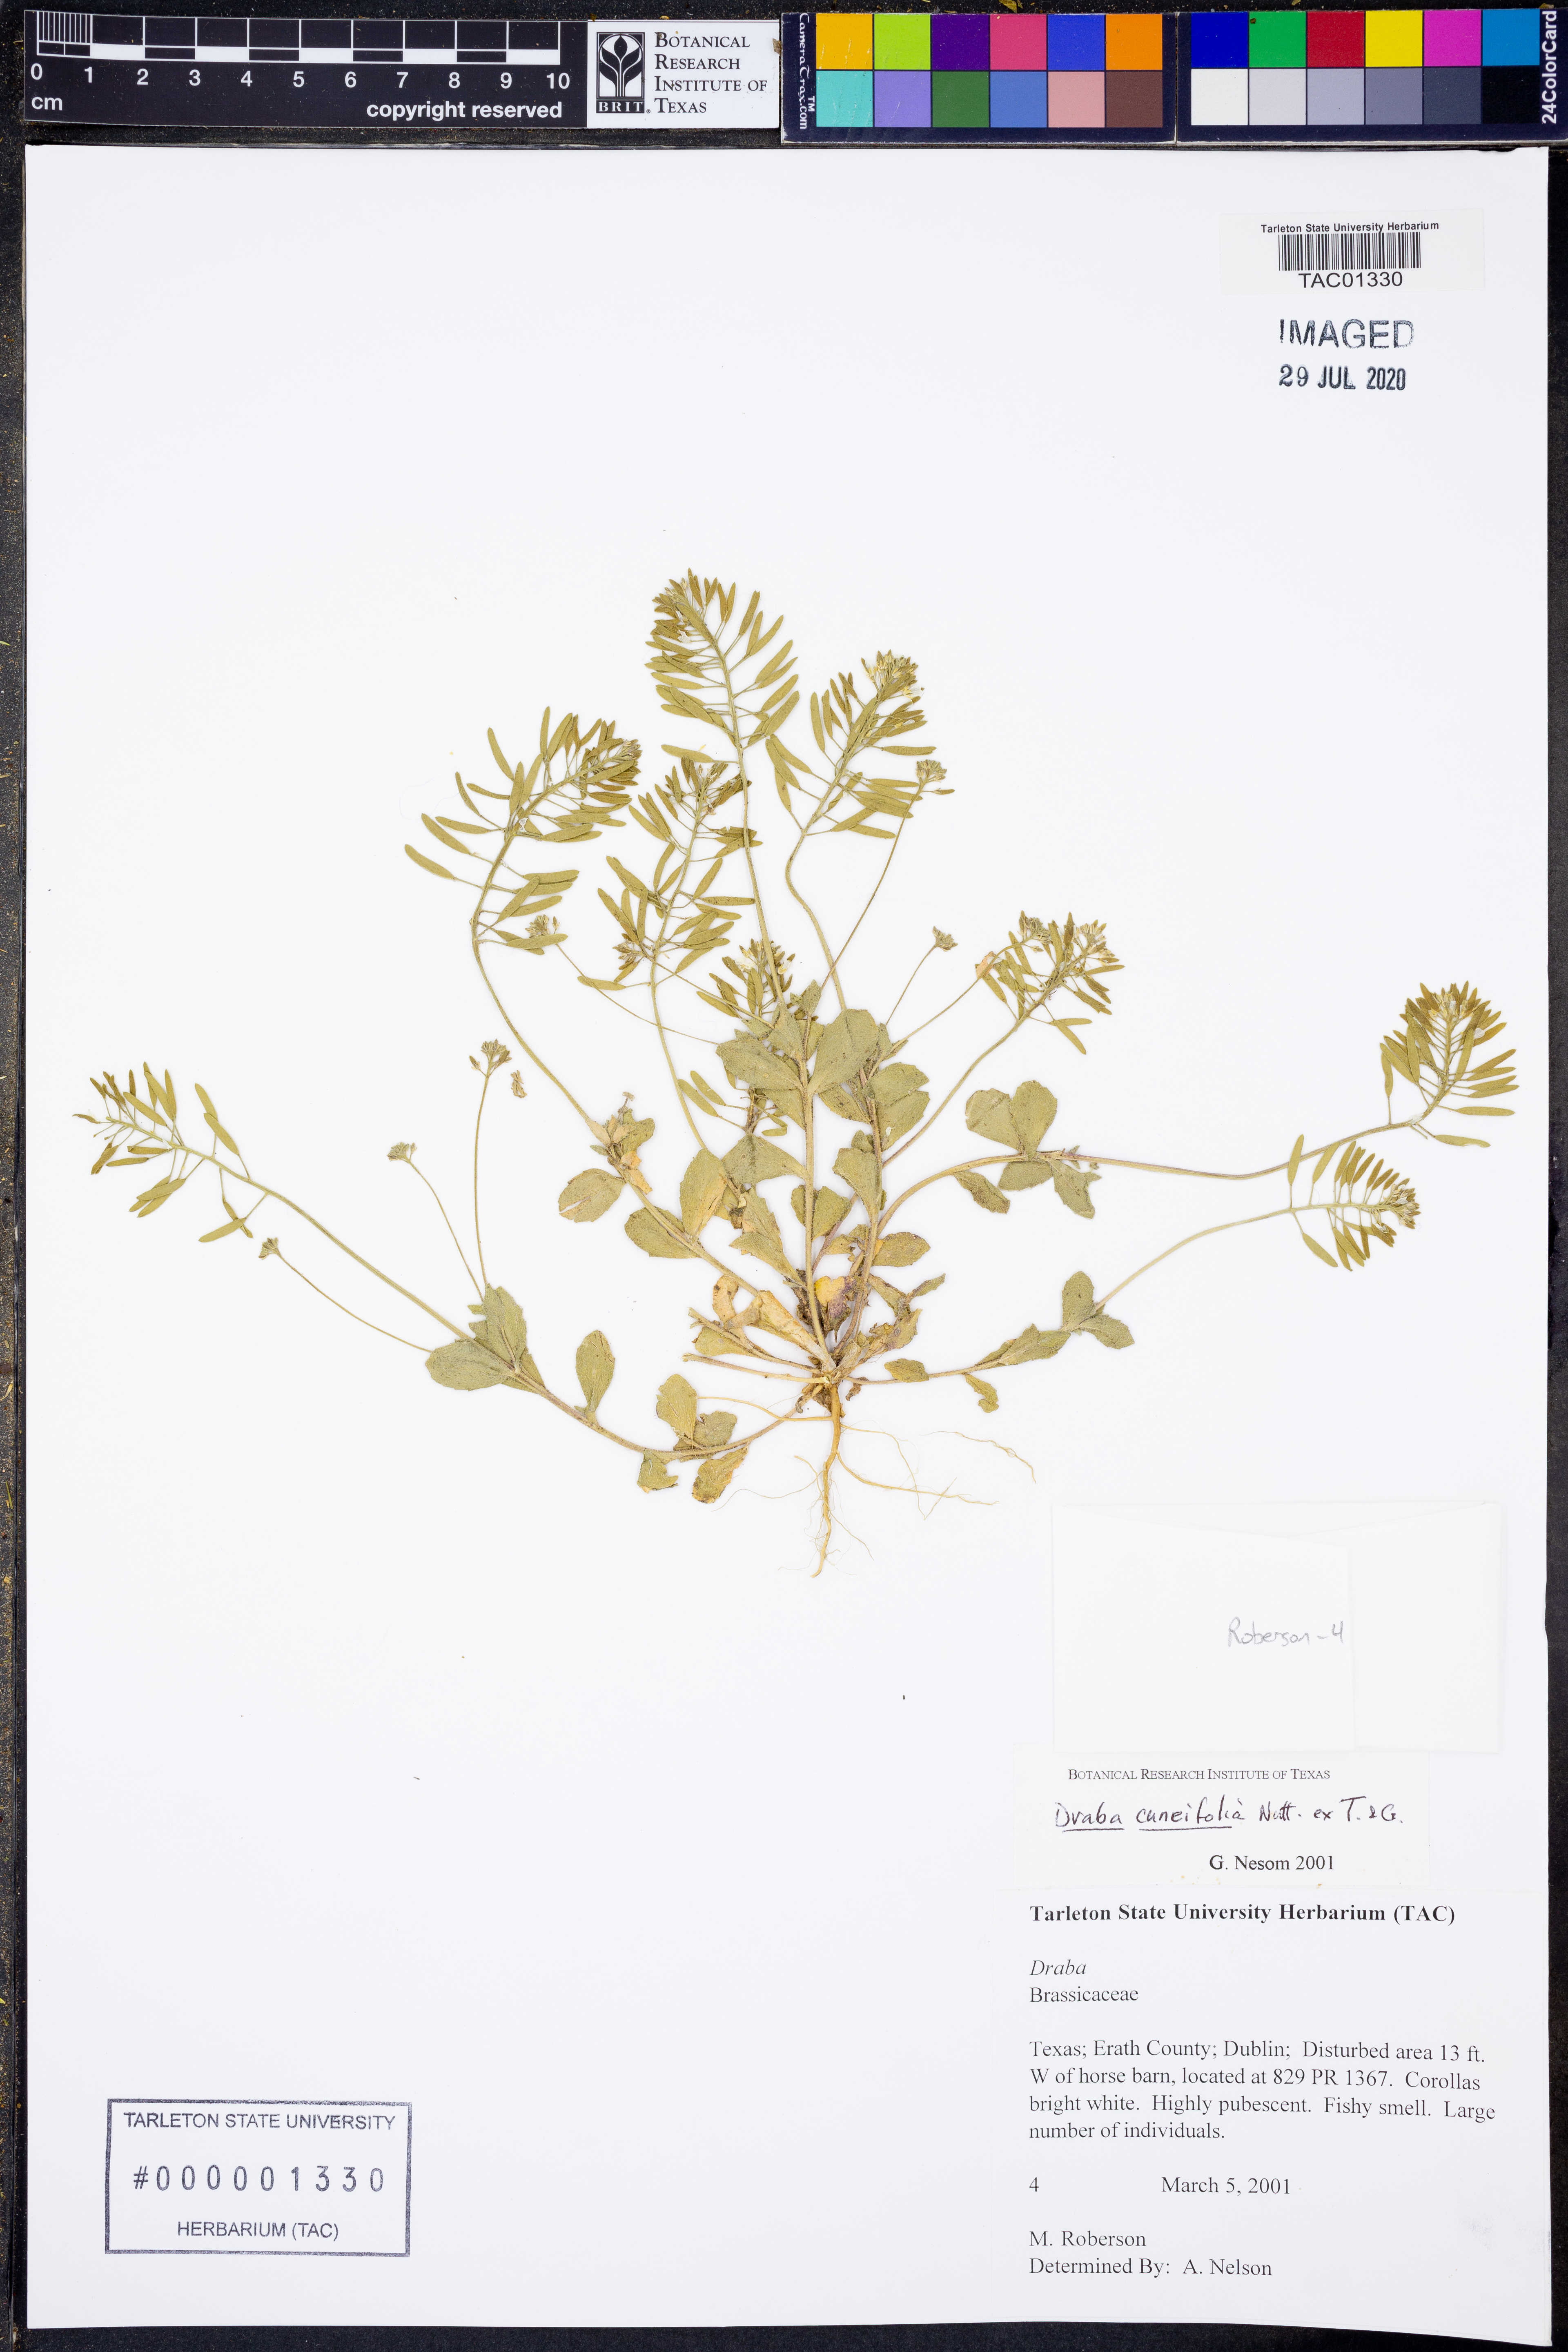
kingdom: Plantae
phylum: Tracheophyta
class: Magnoliopsida
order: Brassicales
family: Brassicaceae
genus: Tomostima
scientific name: Tomostima cuneifolia
